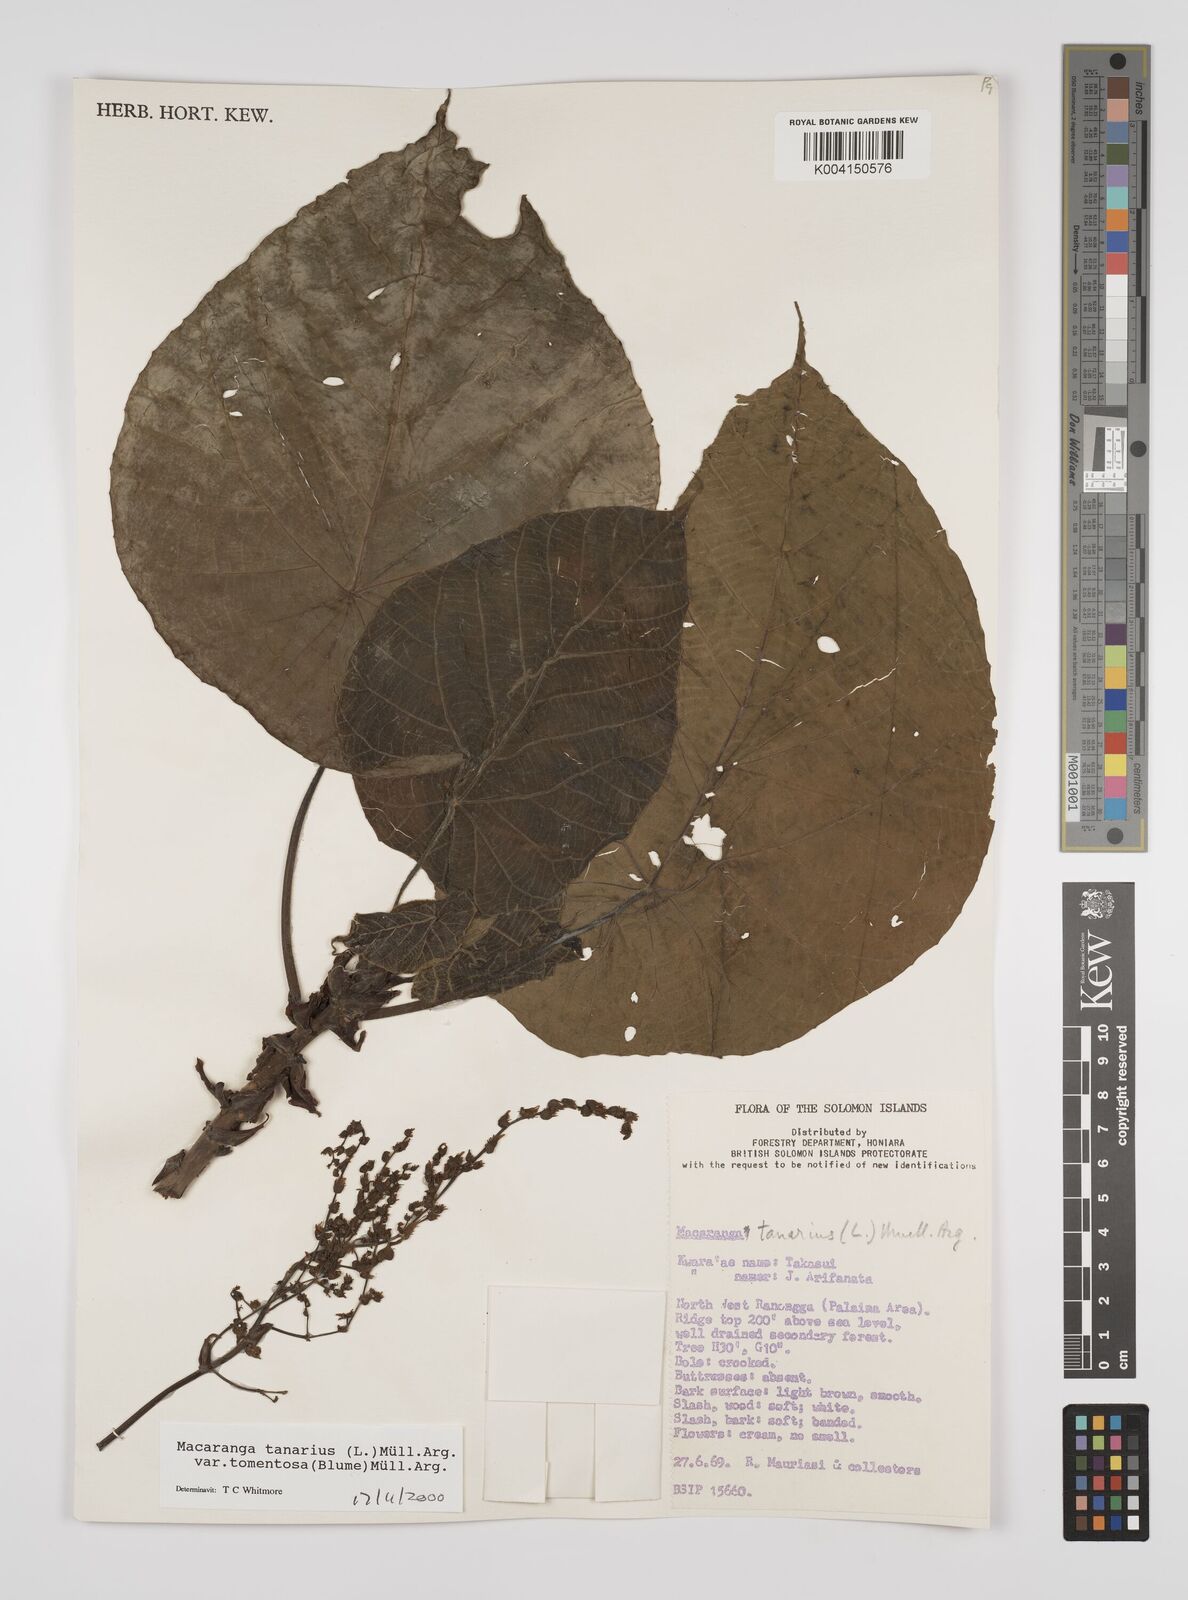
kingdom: Plantae
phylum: Tracheophyta
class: Magnoliopsida
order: Malpighiales
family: Euphorbiaceae
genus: Macaranga
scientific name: Macaranga tanarius
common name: Parasol leaf tree
